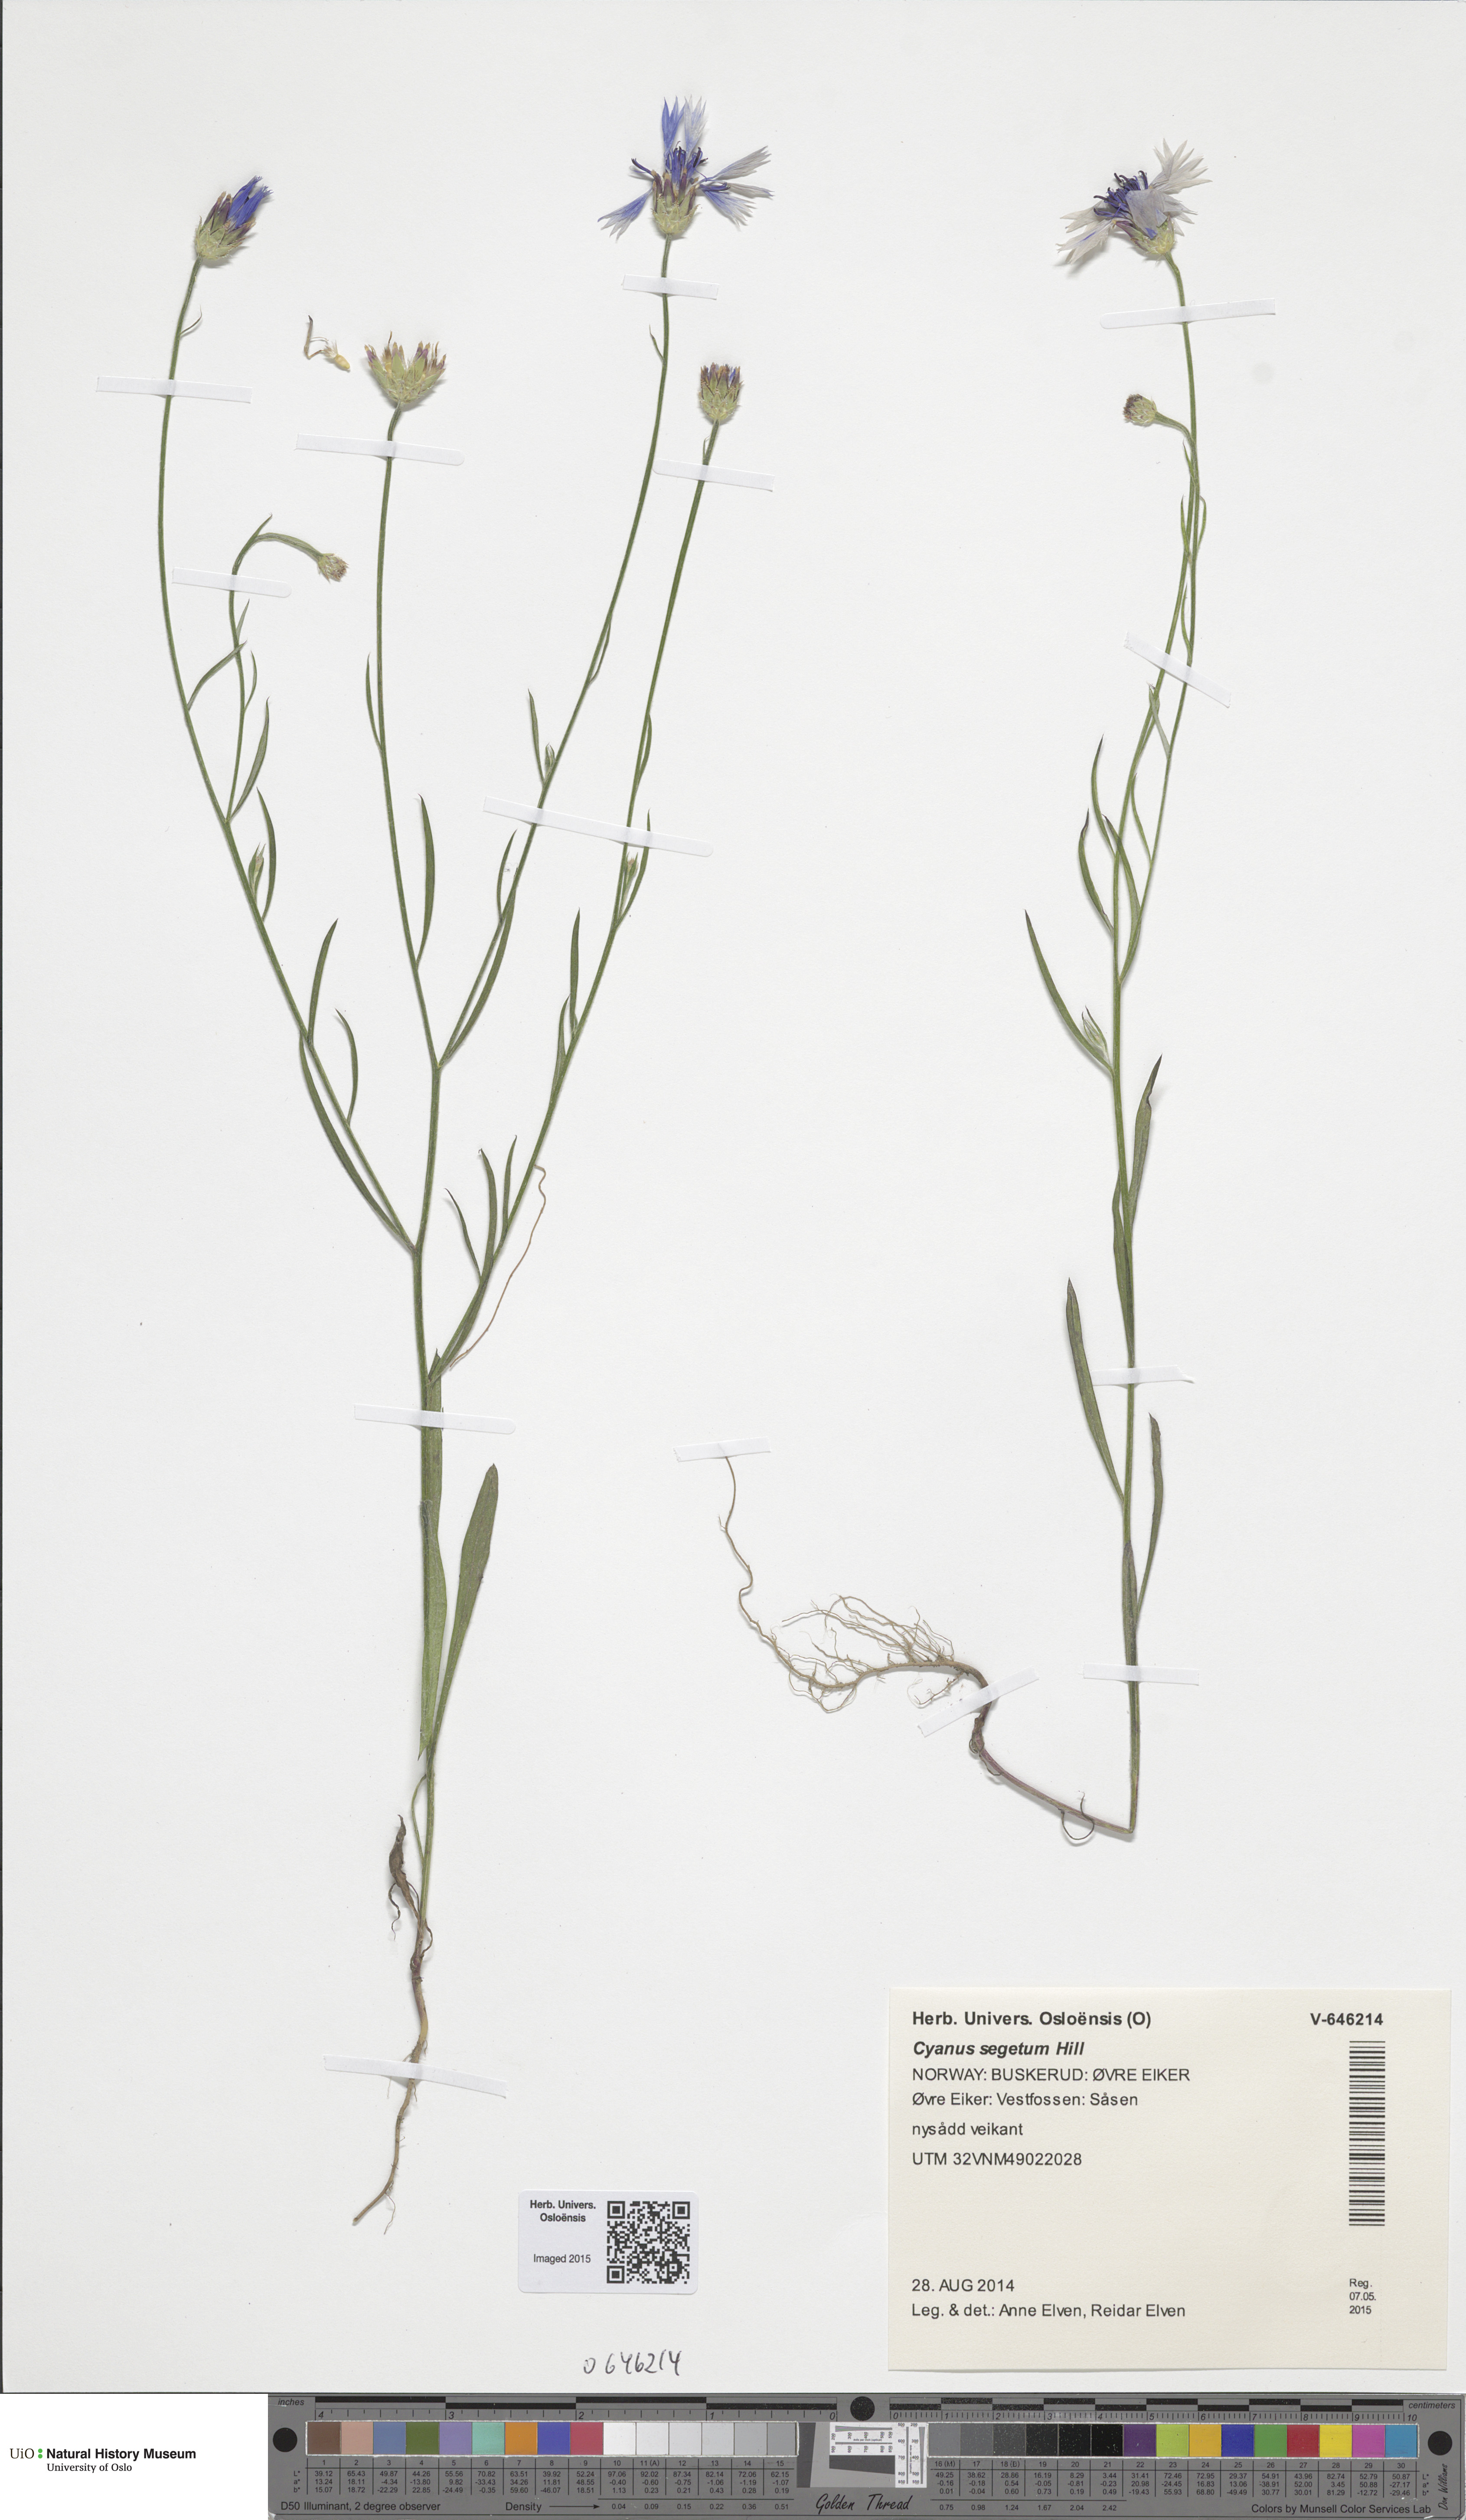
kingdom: Plantae
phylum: Tracheophyta
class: Magnoliopsida
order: Asterales
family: Asteraceae
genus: Centaurea
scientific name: Centaurea cyanus
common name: Cornflower
